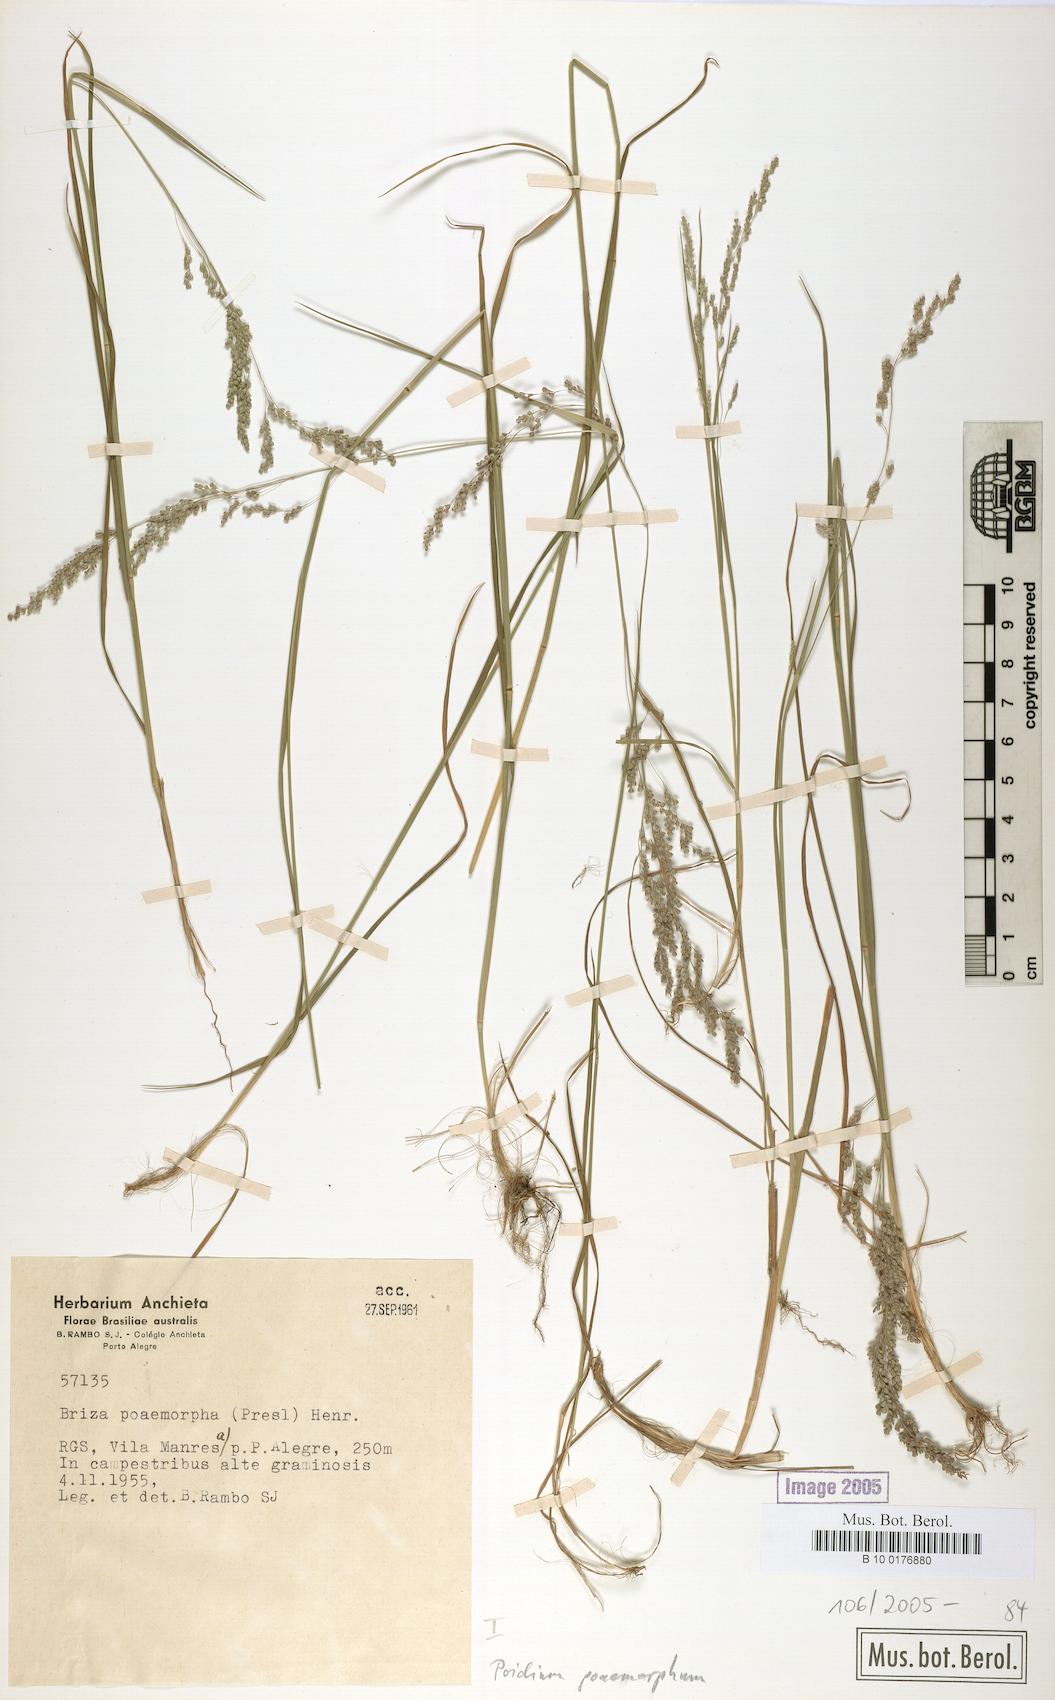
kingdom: Plantae
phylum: Tracheophyta
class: Liliopsida
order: Poales
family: Poaceae
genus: Chascolytrum
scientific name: Chascolytrum poomorphum
